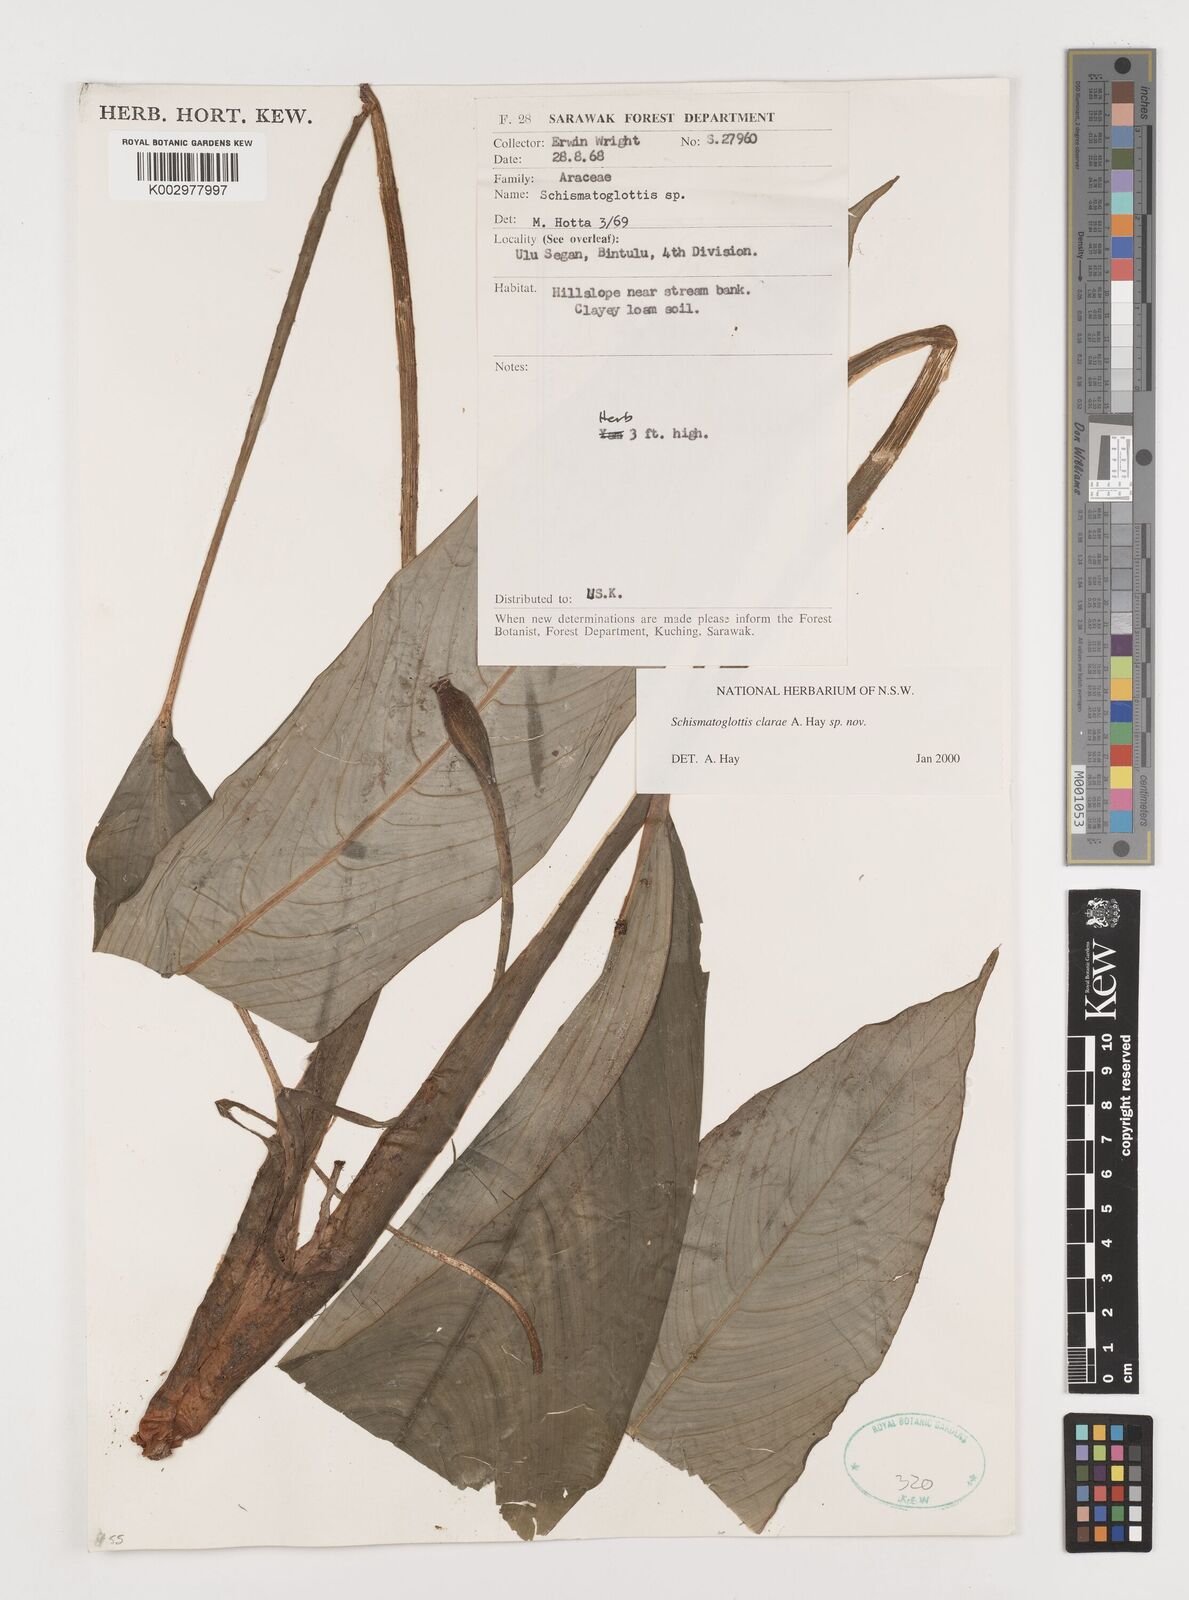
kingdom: Plantae
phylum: Tracheophyta
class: Liliopsida
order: Alismatales
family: Araceae
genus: Schismatoglottis
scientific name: Schismatoglottis clarae
